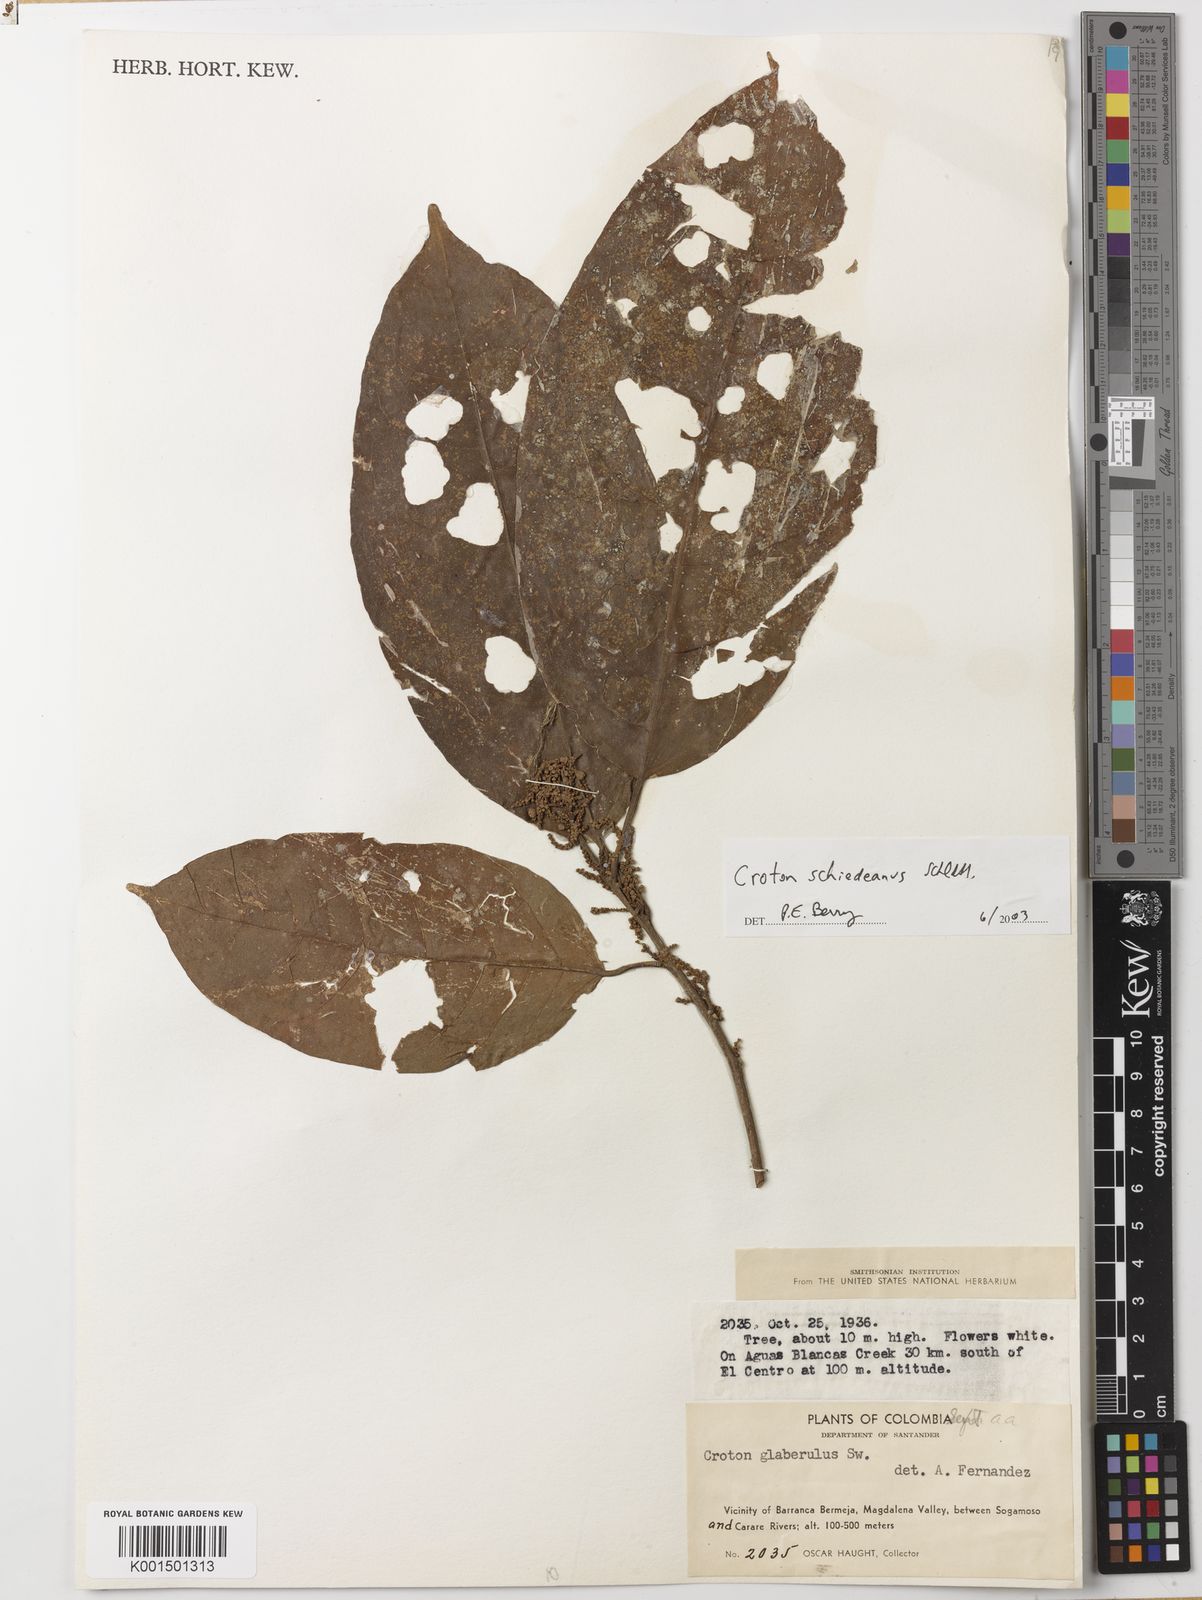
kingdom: Plantae
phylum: Tracheophyta
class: Magnoliopsida
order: Malpighiales
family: Euphorbiaceae
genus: Croton
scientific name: Croton schiedeanus
